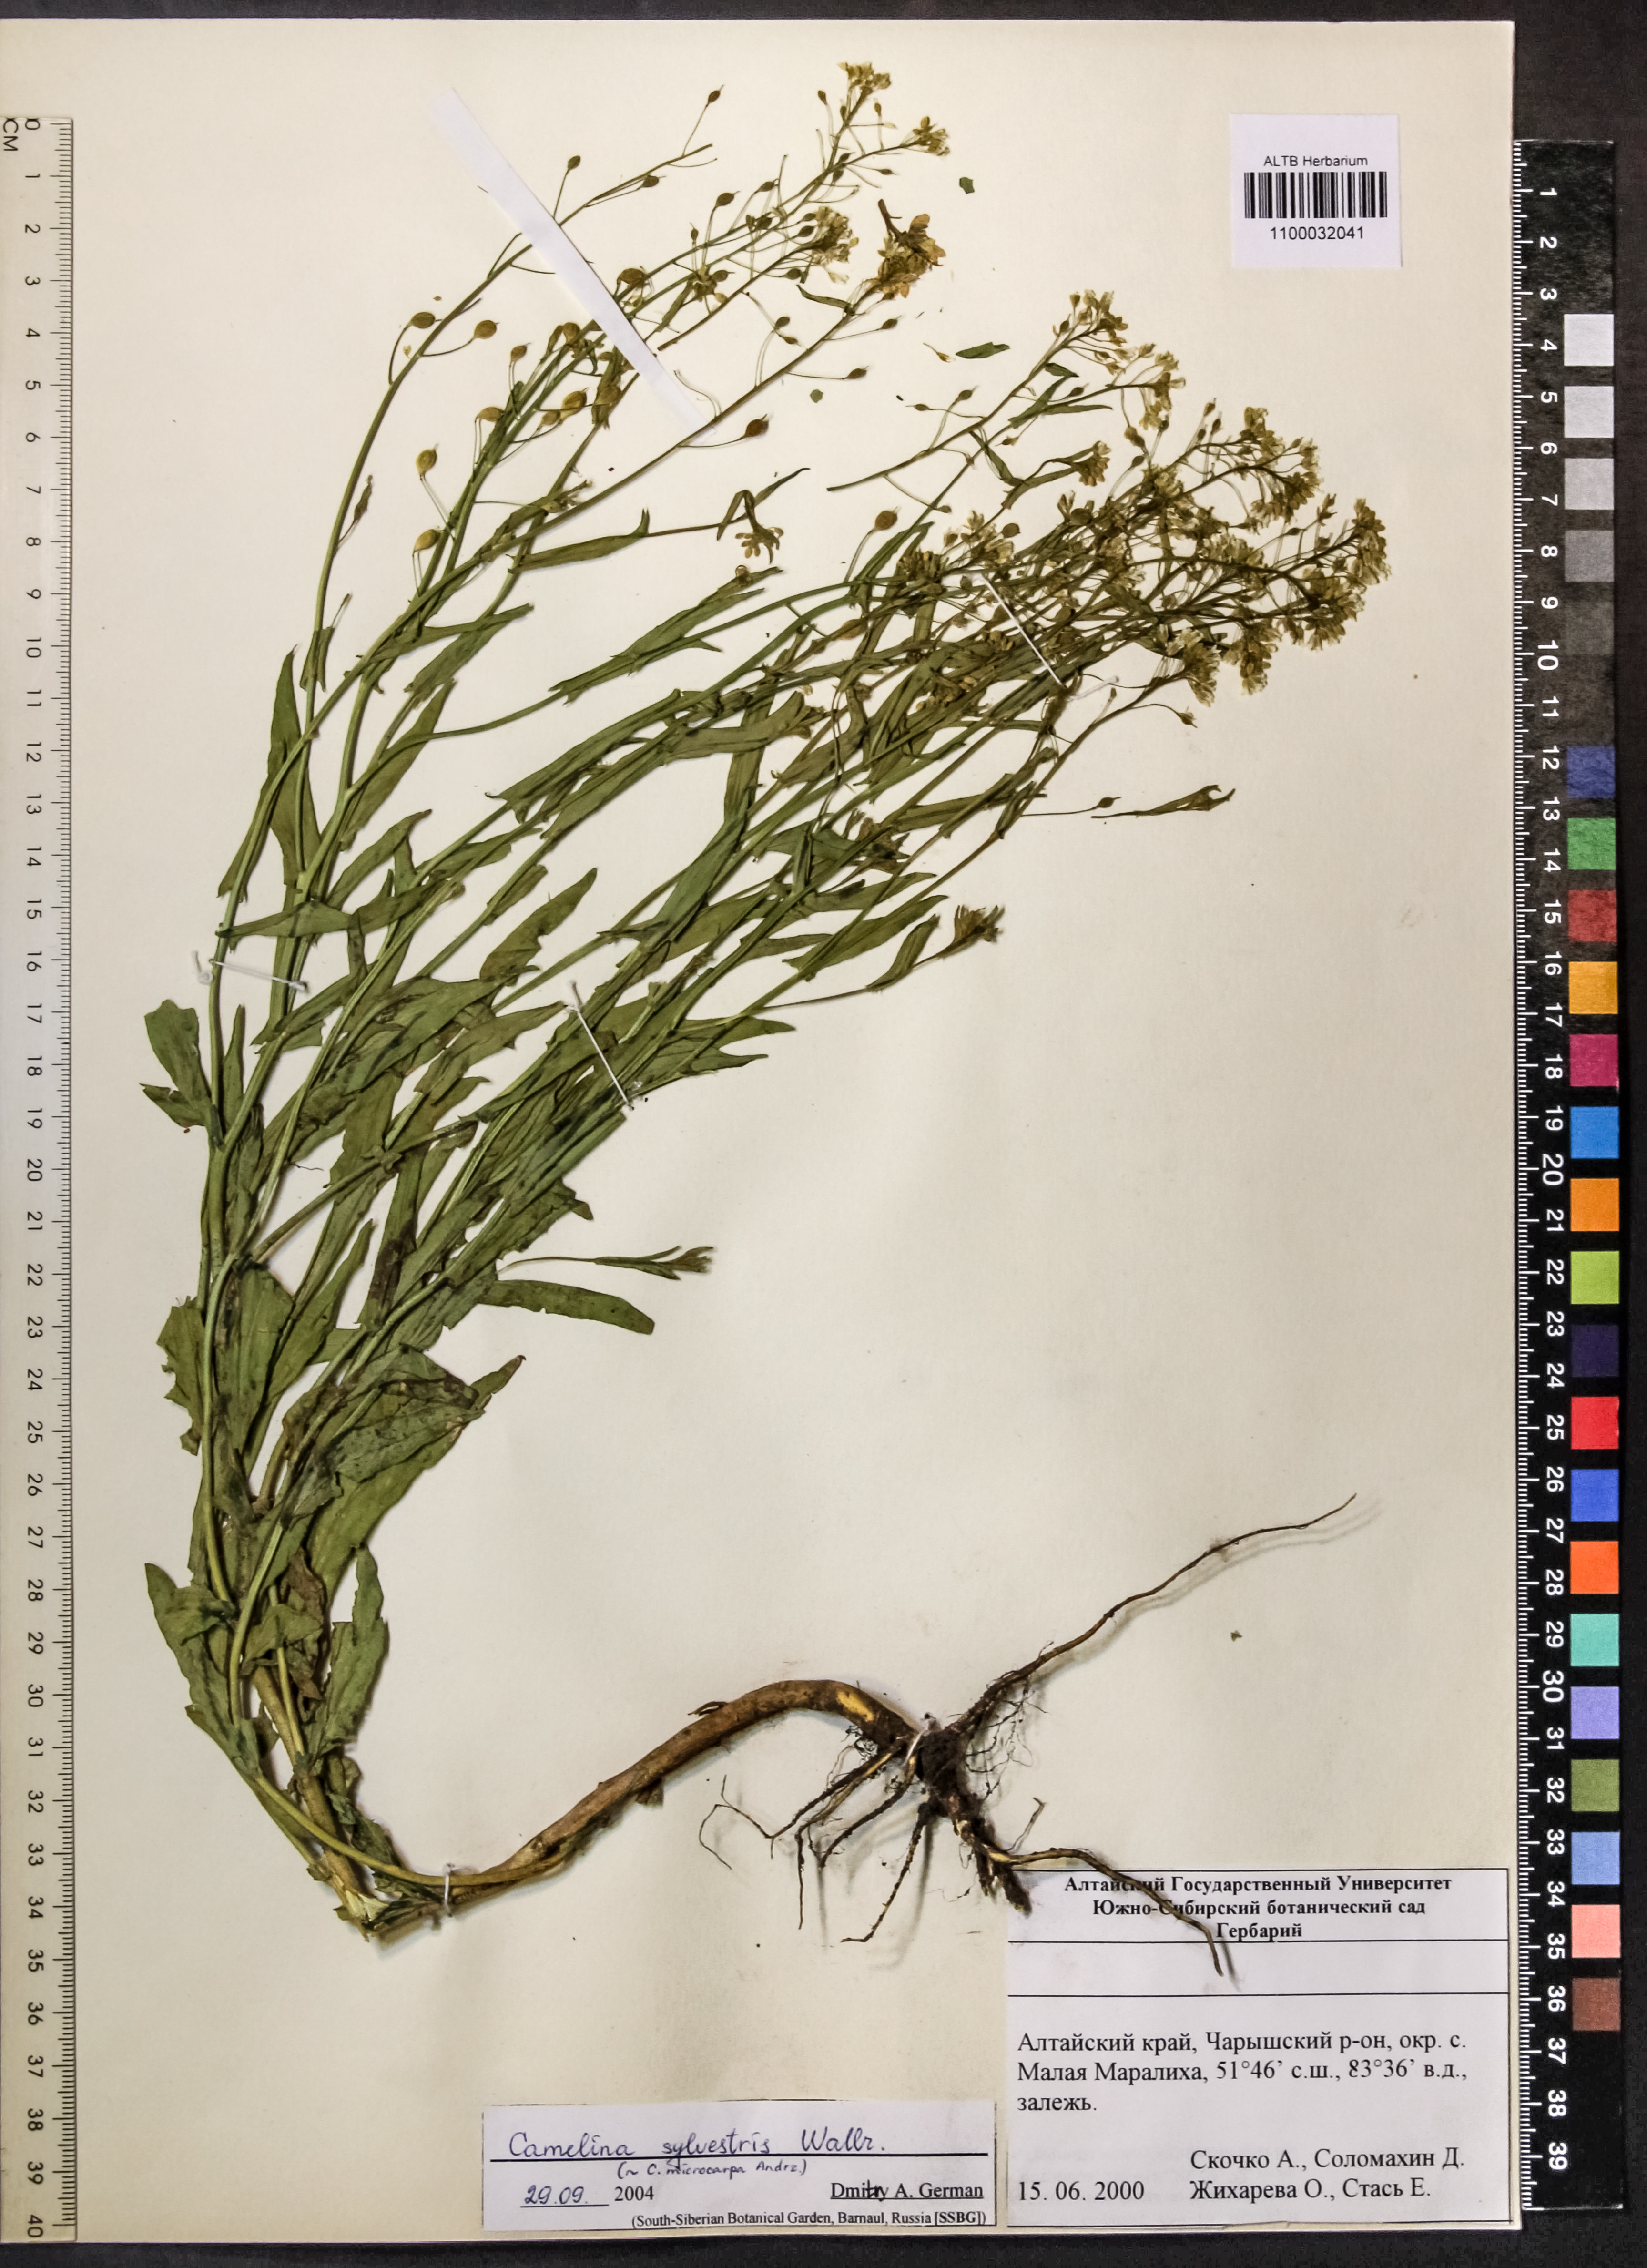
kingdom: Plantae
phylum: Tracheophyta
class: Magnoliopsida
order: Brassicales
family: Brassicaceae
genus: Camelina
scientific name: Camelina microcarpa
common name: Lesser gold-of-pleasure
